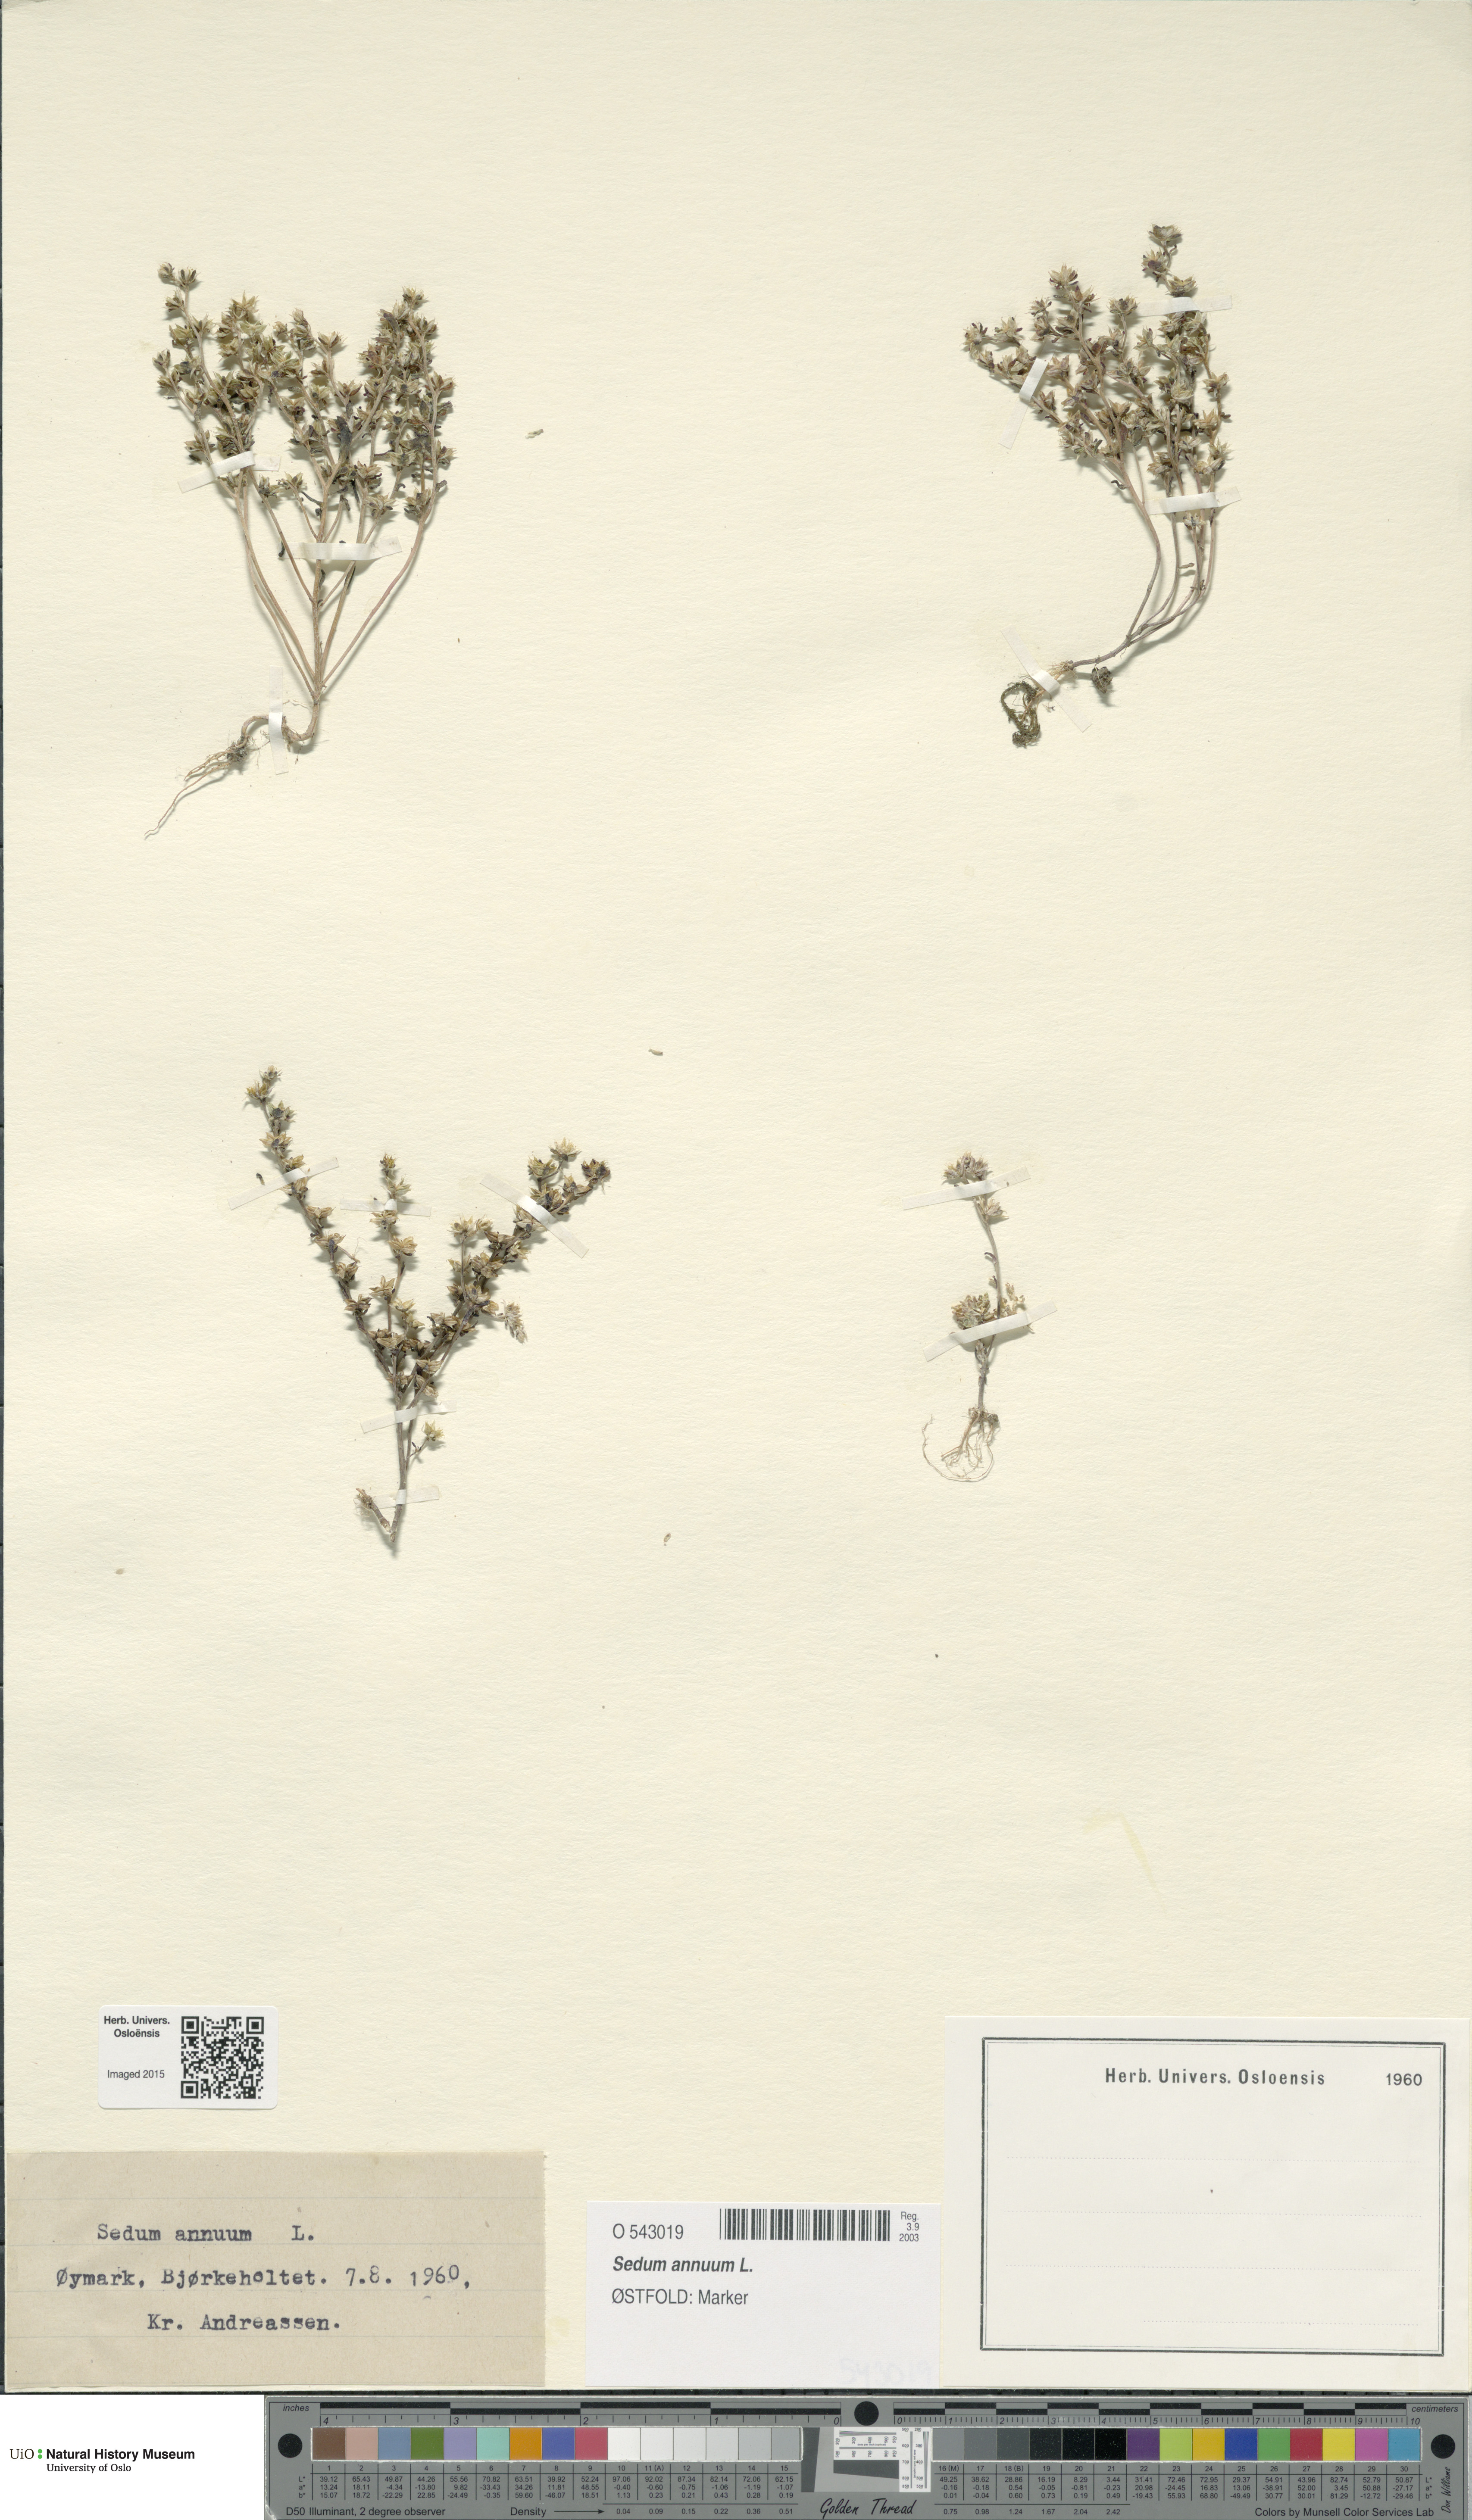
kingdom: Plantae
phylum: Tracheophyta
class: Magnoliopsida
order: Saxifragales
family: Crassulaceae
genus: Sedum
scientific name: Sedum annuum
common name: Annual stonecrop
